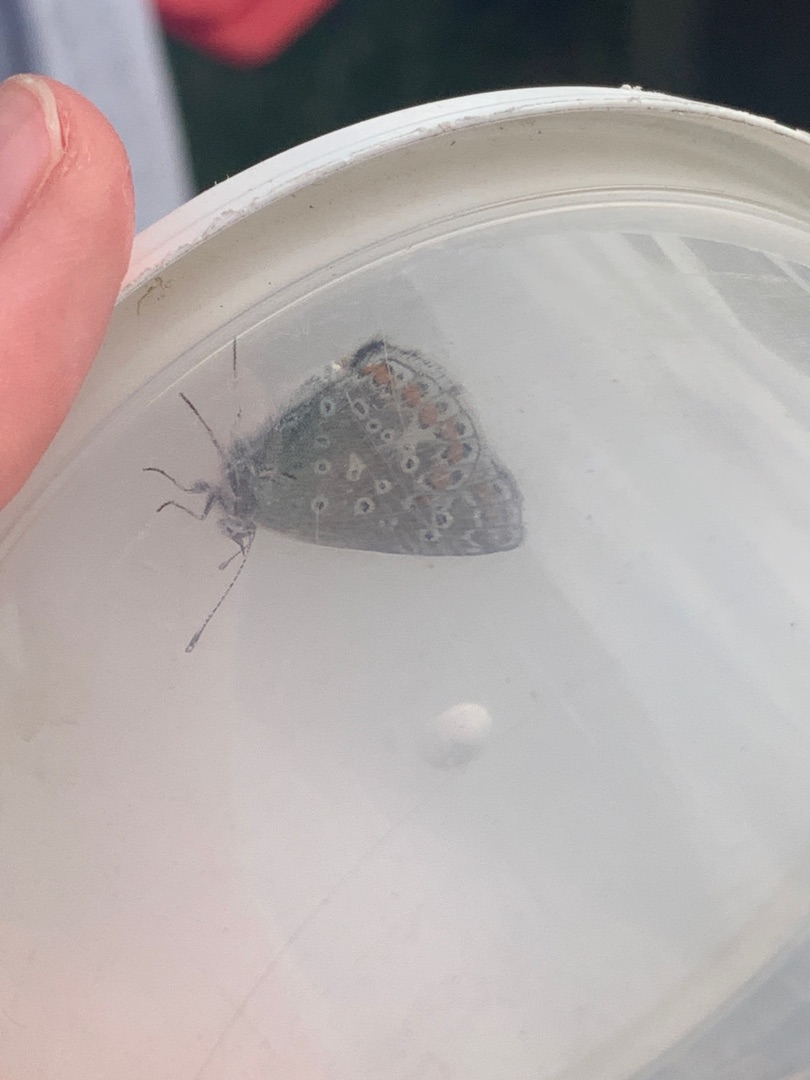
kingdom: Animalia
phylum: Arthropoda
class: Insecta
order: Lepidoptera
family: Lycaenidae
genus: Polyommatus
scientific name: Polyommatus icarus
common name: Almindelig blåfugl
